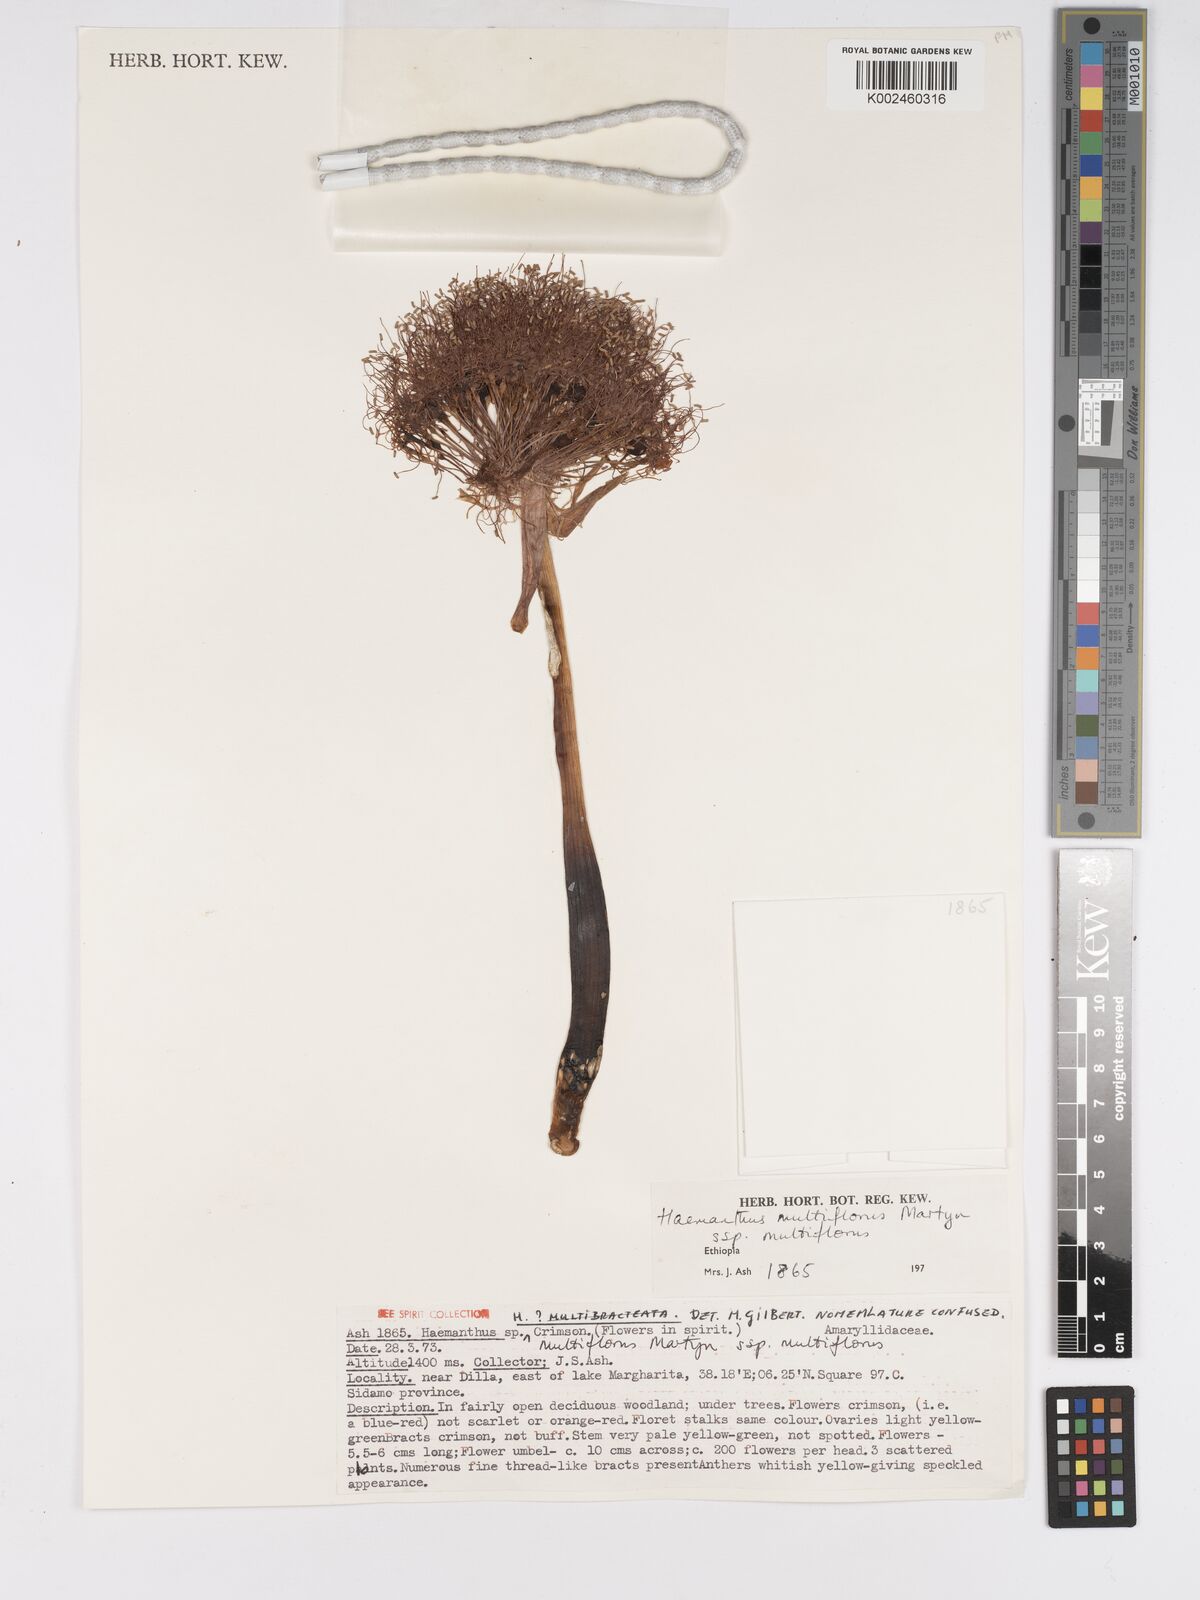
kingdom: Plantae
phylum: Tracheophyta
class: Liliopsida
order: Asparagales
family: Amaryllidaceae
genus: Scadoxus
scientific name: Scadoxus multiflorus
